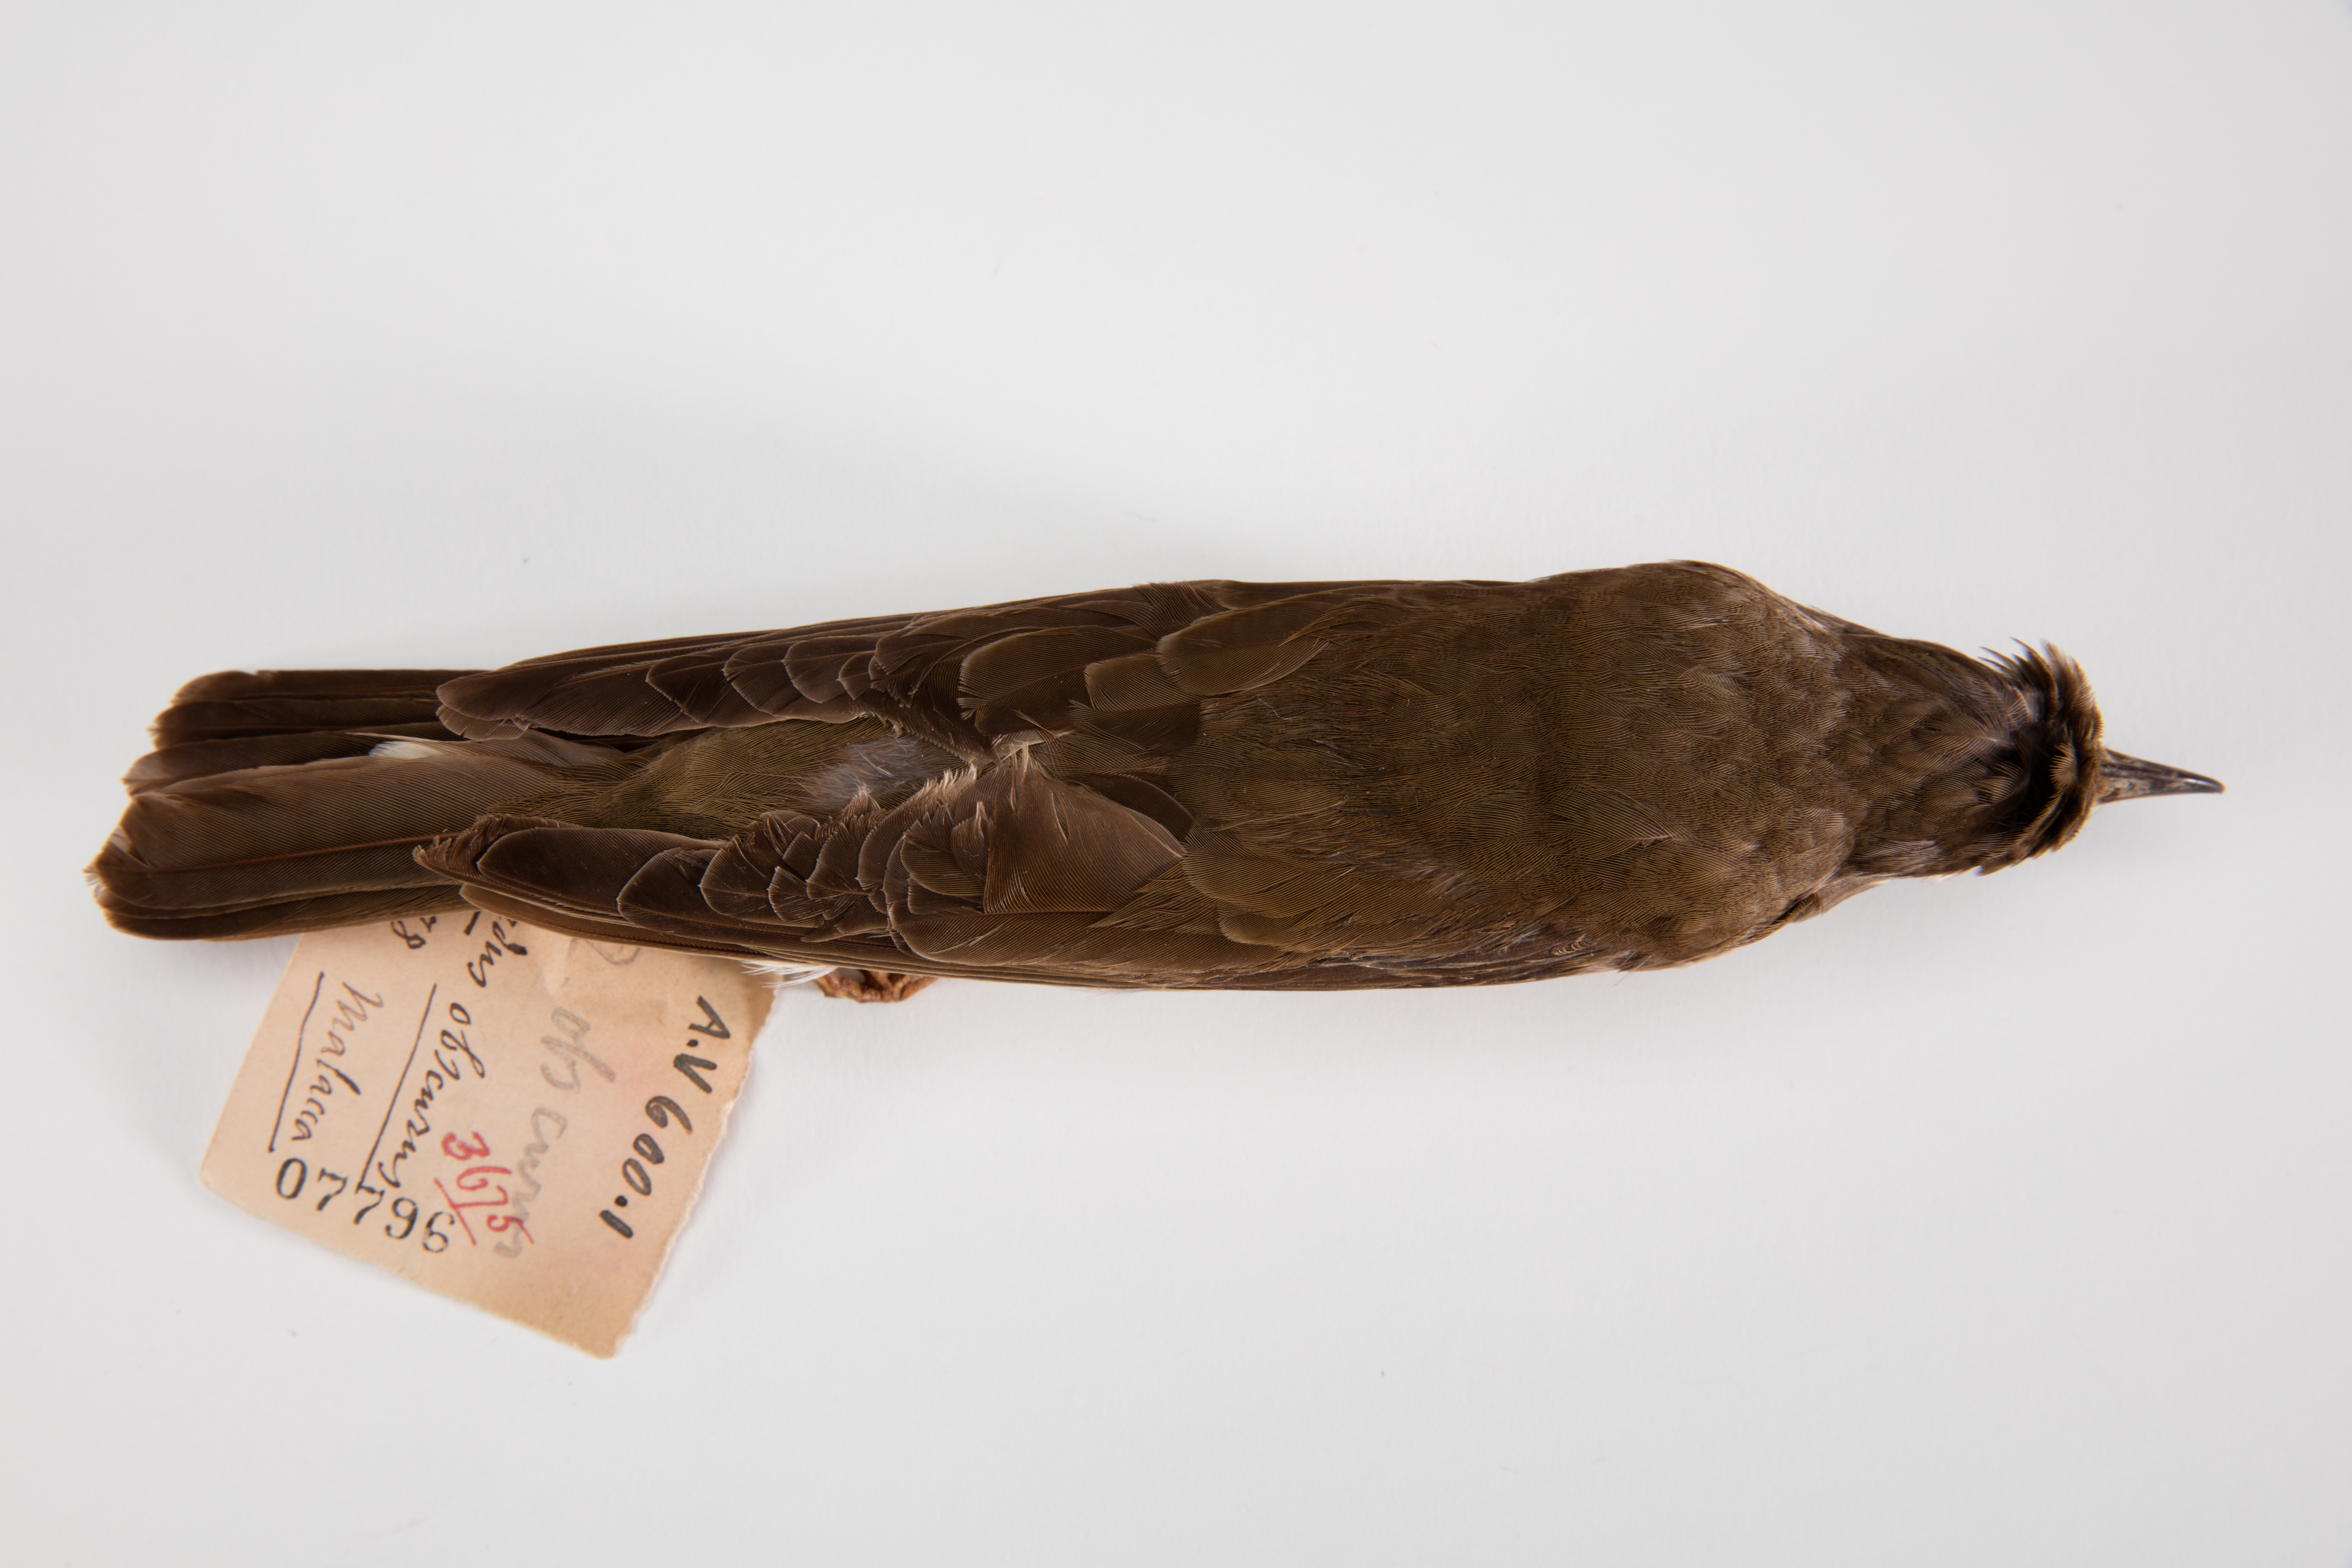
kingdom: Animalia
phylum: Chordata
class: Aves
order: Passeriformes
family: Turdidae
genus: Turdus
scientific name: Turdus obscurus
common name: Eyebrowed thrush
